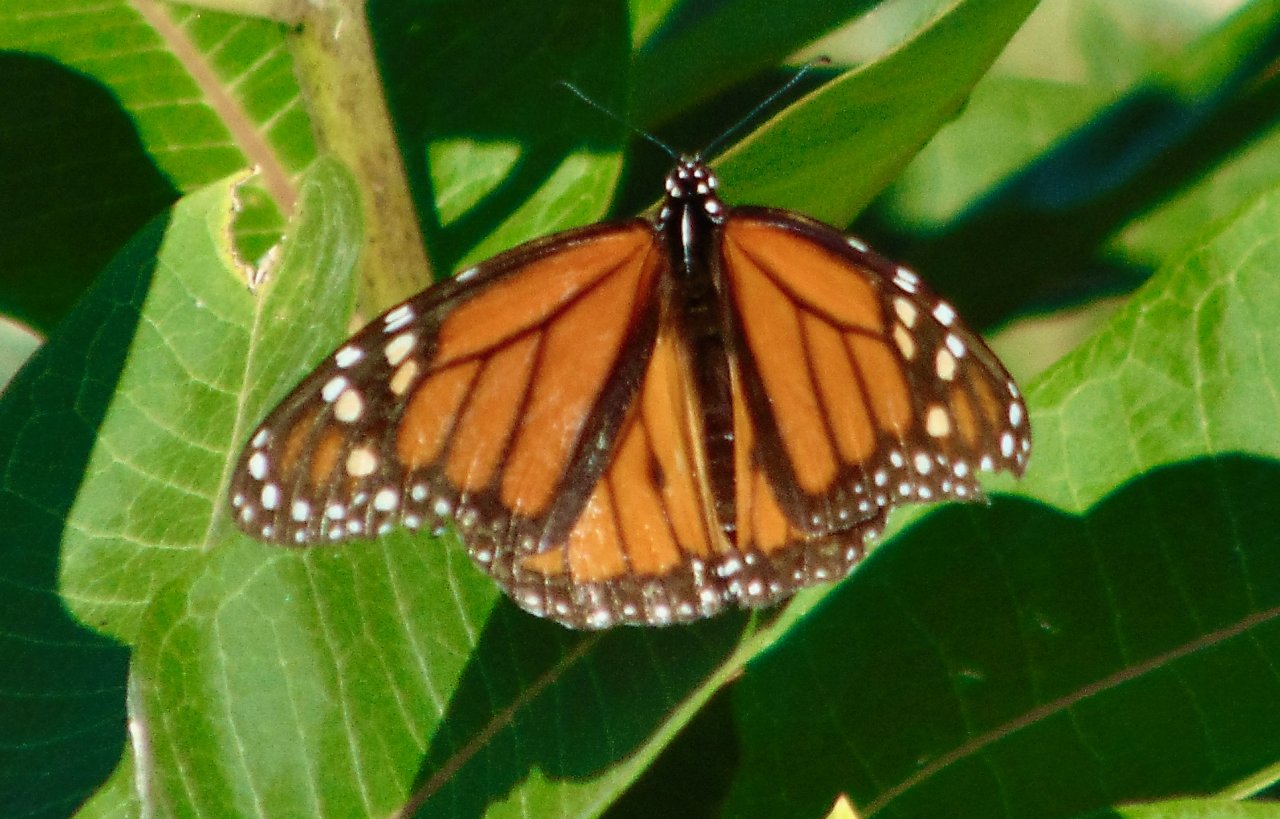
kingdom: Animalia
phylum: Arthropoda
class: Insecta
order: Lepidoptera
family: Nymphalidae
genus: Danaus
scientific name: Danaus plexippus
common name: Monarch
